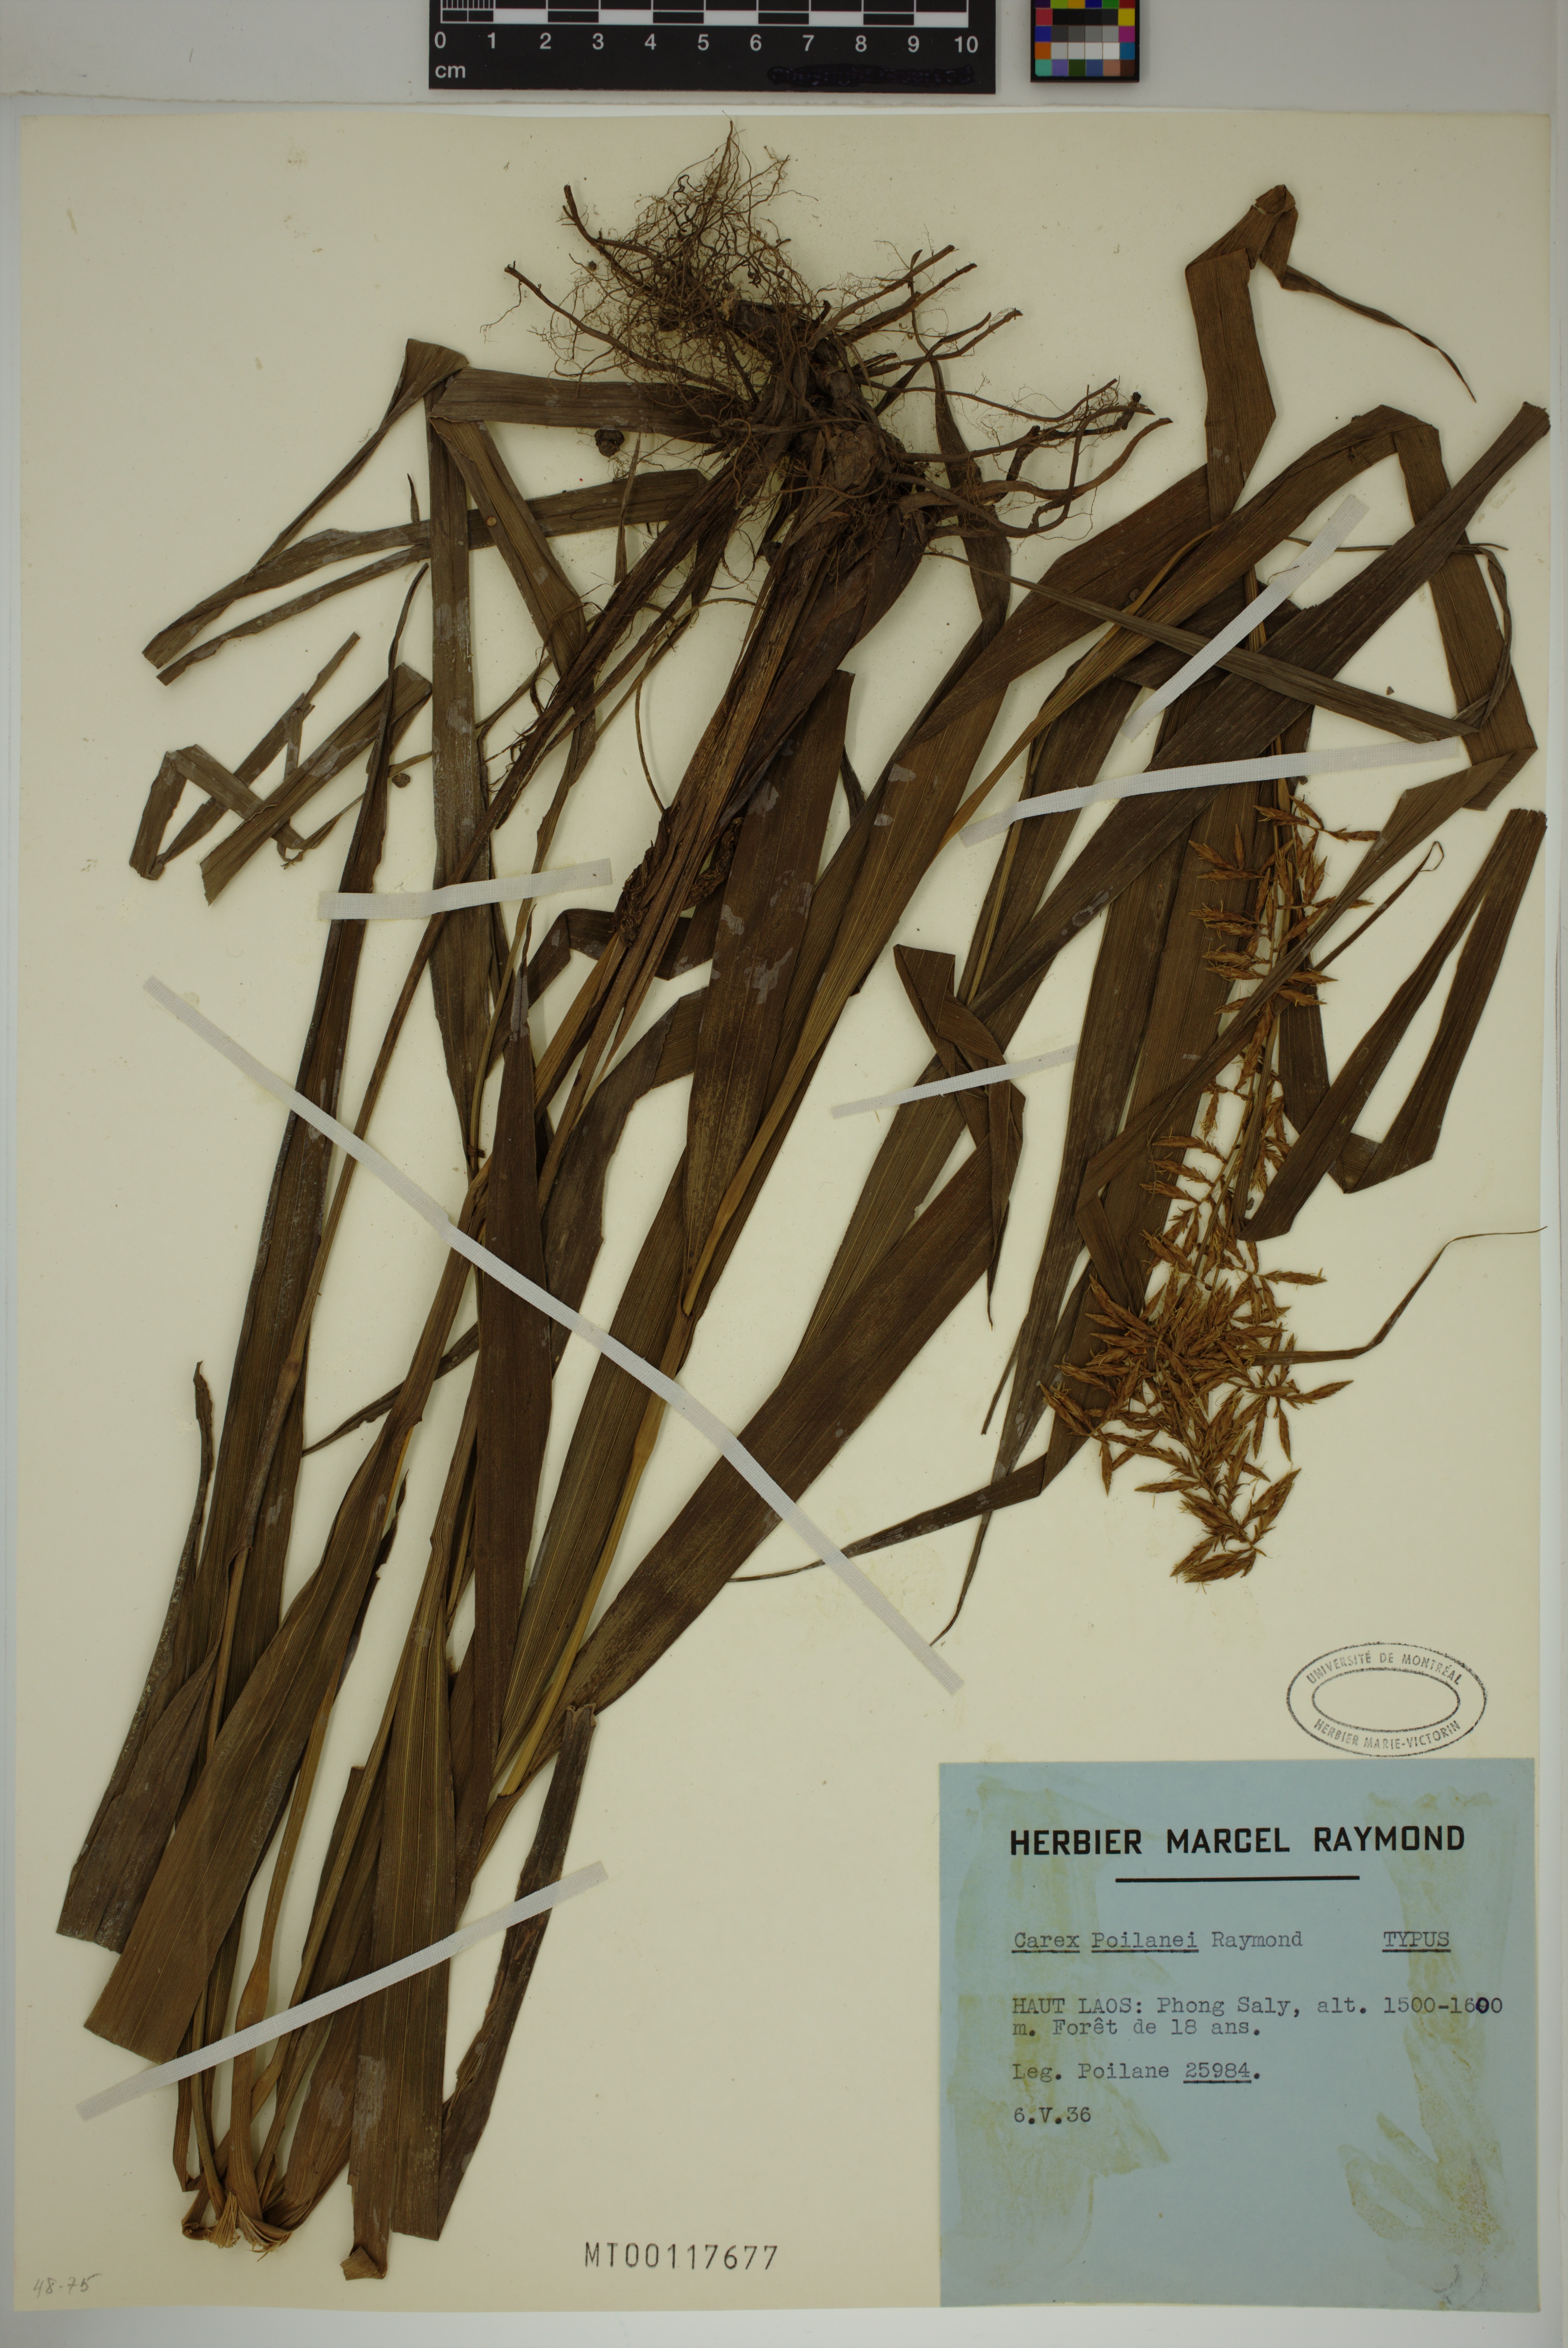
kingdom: Plantae
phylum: Tracheophyta
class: Liliopsida
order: Poales
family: Cyperaceae
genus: Carex
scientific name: Carex poilanei
